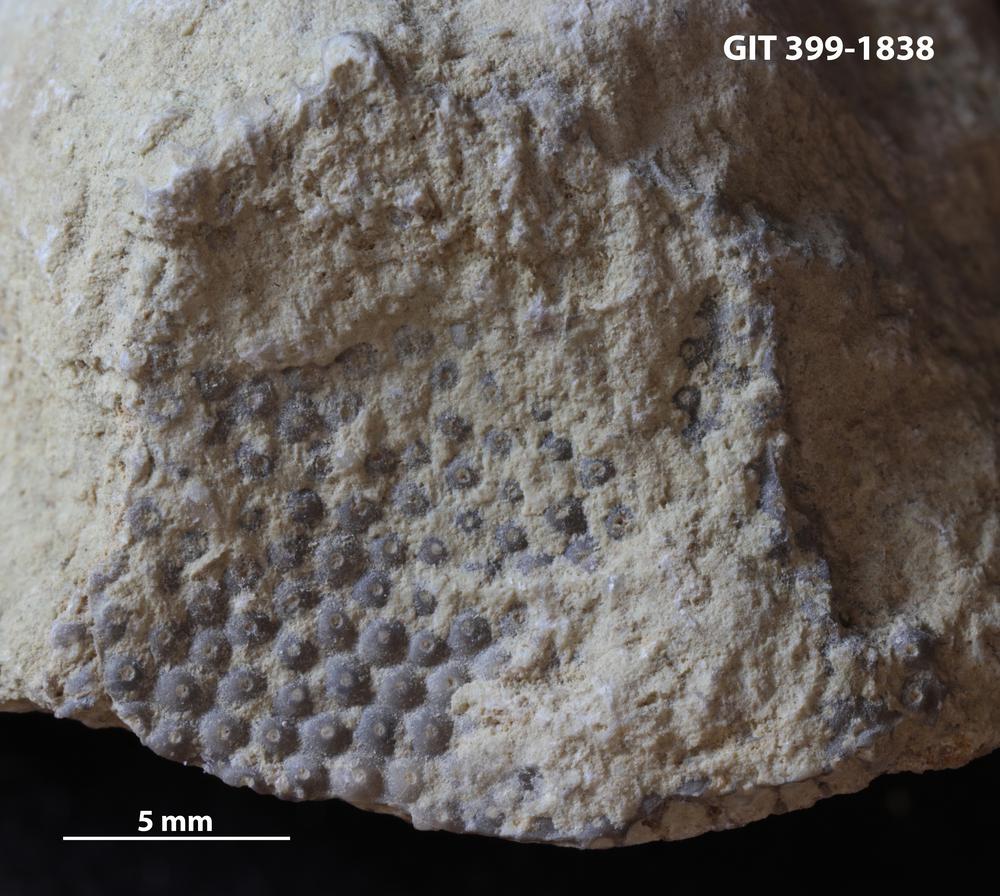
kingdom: Plantae
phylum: Chlorophyta
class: Ulvophyceae
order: Cyclocrinales
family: Cyclocrinaceae
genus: Mastopora
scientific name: Mastopora concava
